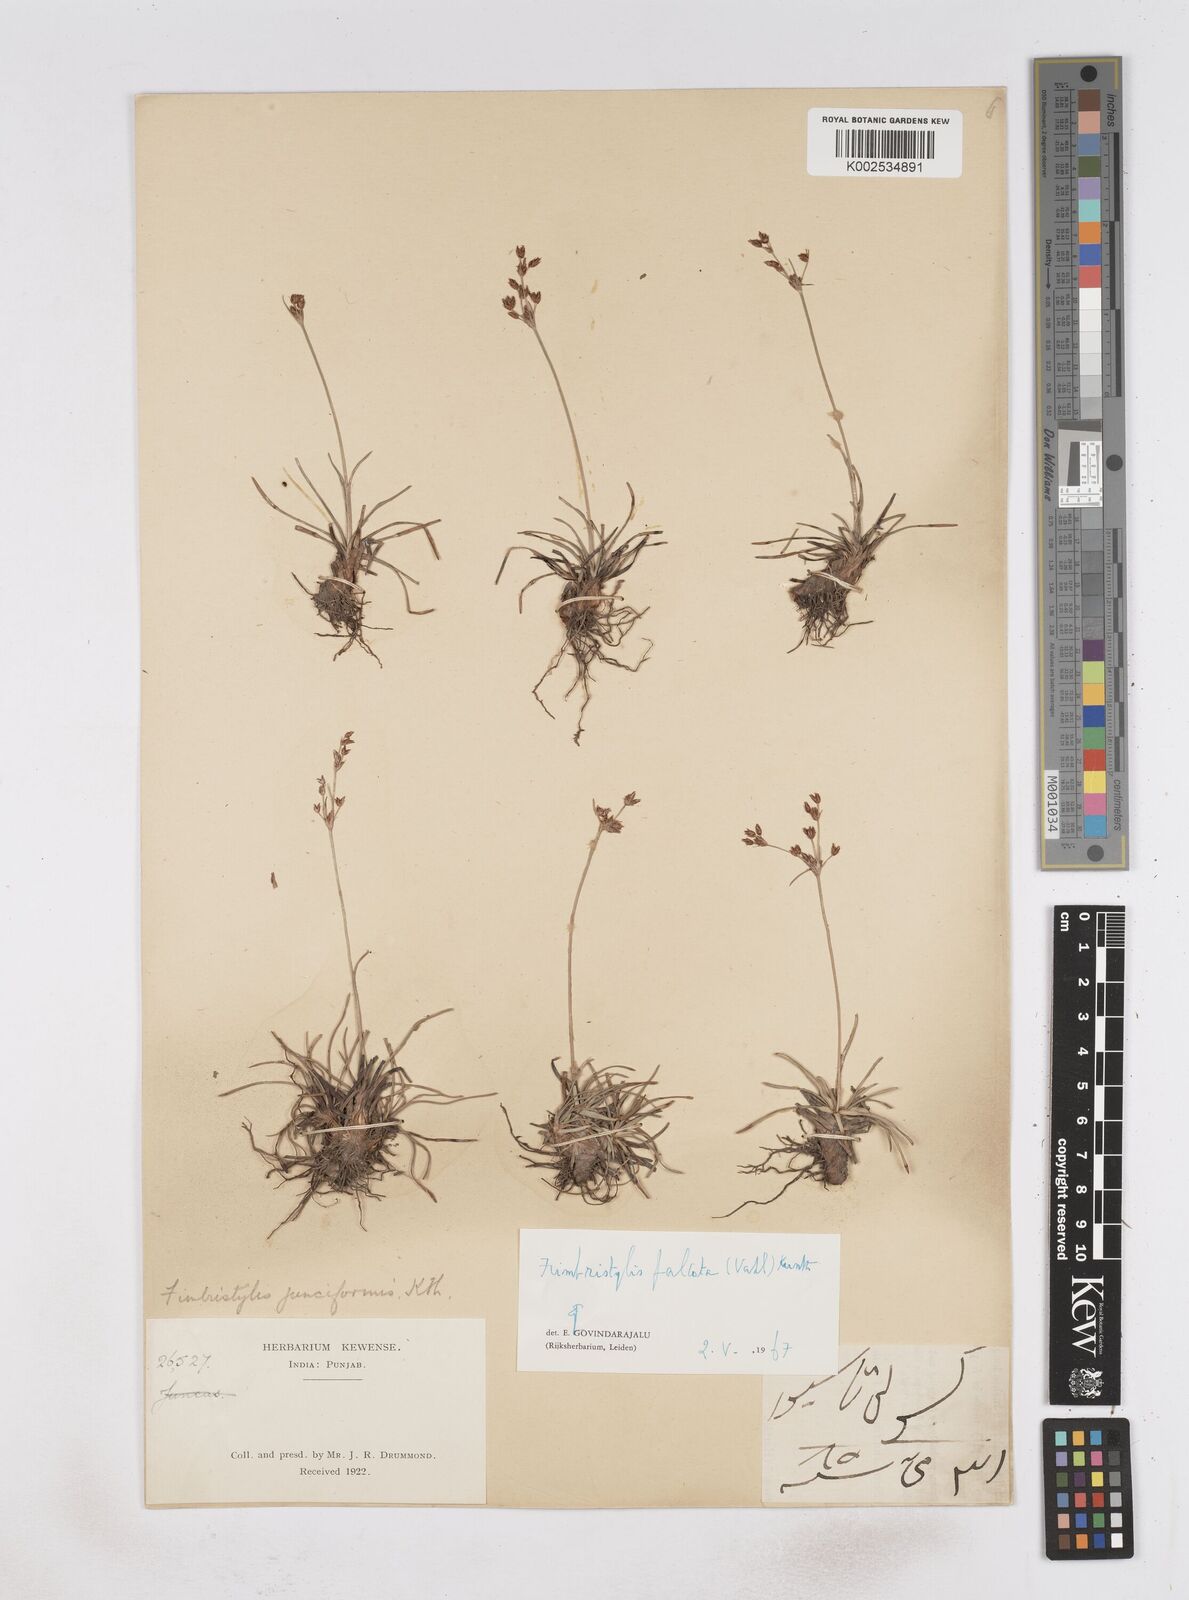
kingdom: Plantae
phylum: Tracheophyta
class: Liliopsida
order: Poales
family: Cyperaceae
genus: Fimbristylis
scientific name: Fimbristylis falcata
